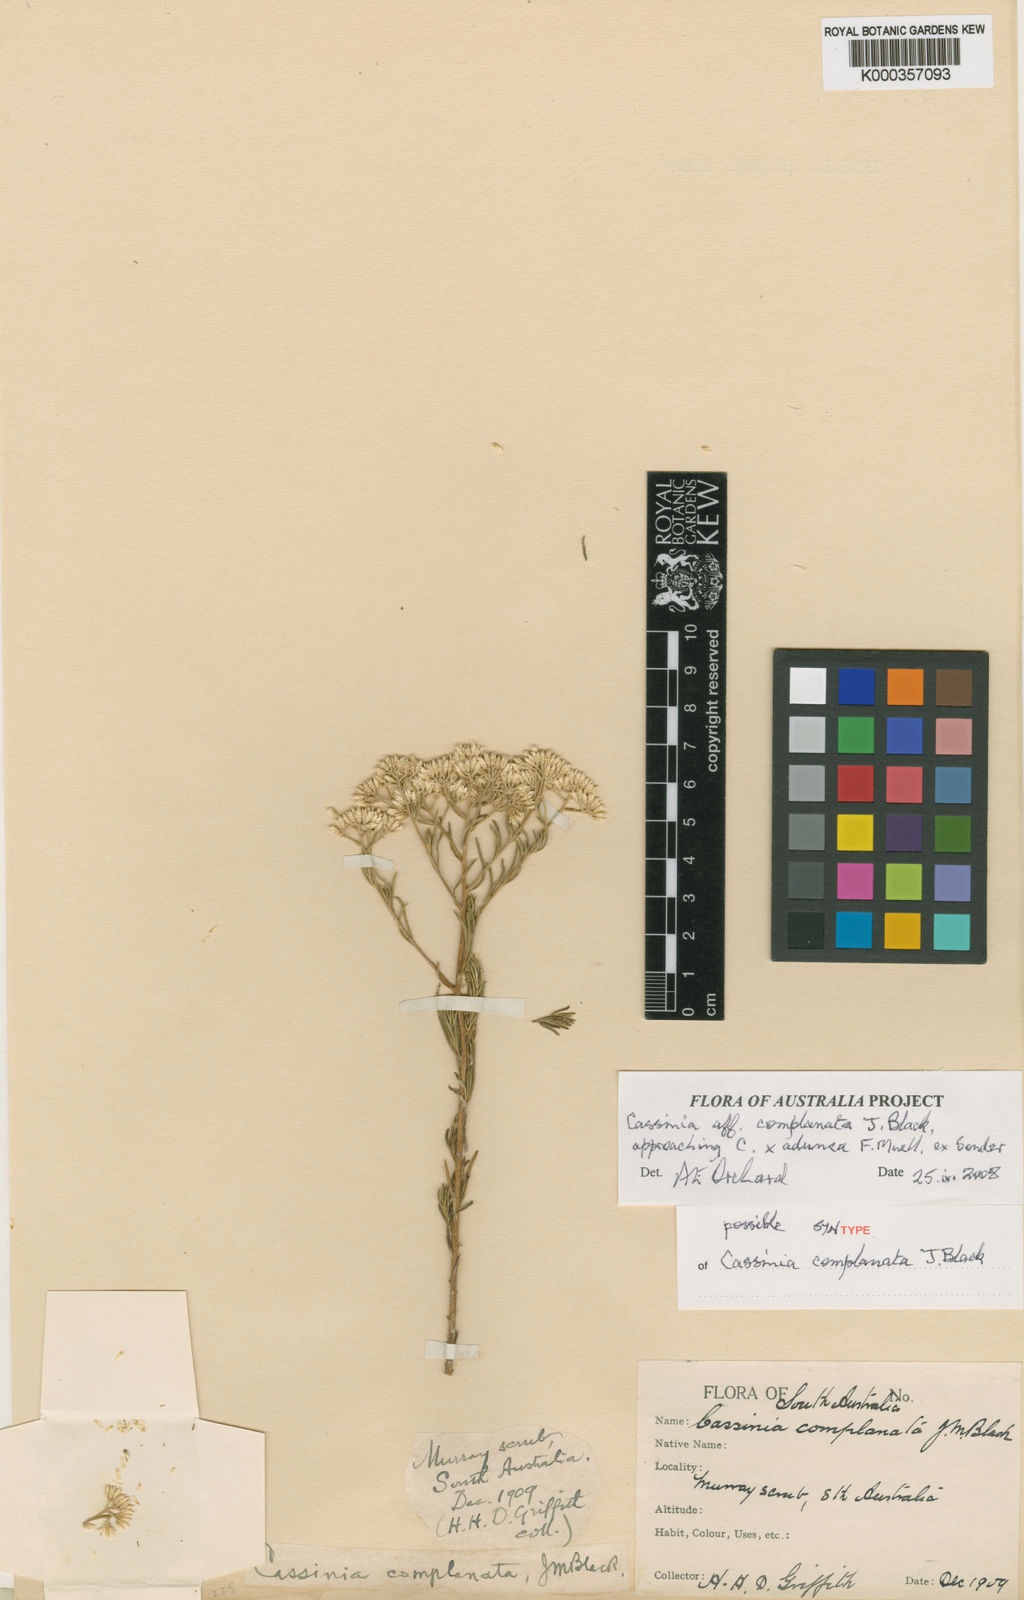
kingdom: Plantae
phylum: Tracheophyta
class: Magnoliopsida
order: Asterales
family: Asteraceae
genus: Cassinia
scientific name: Cassinia complanata
